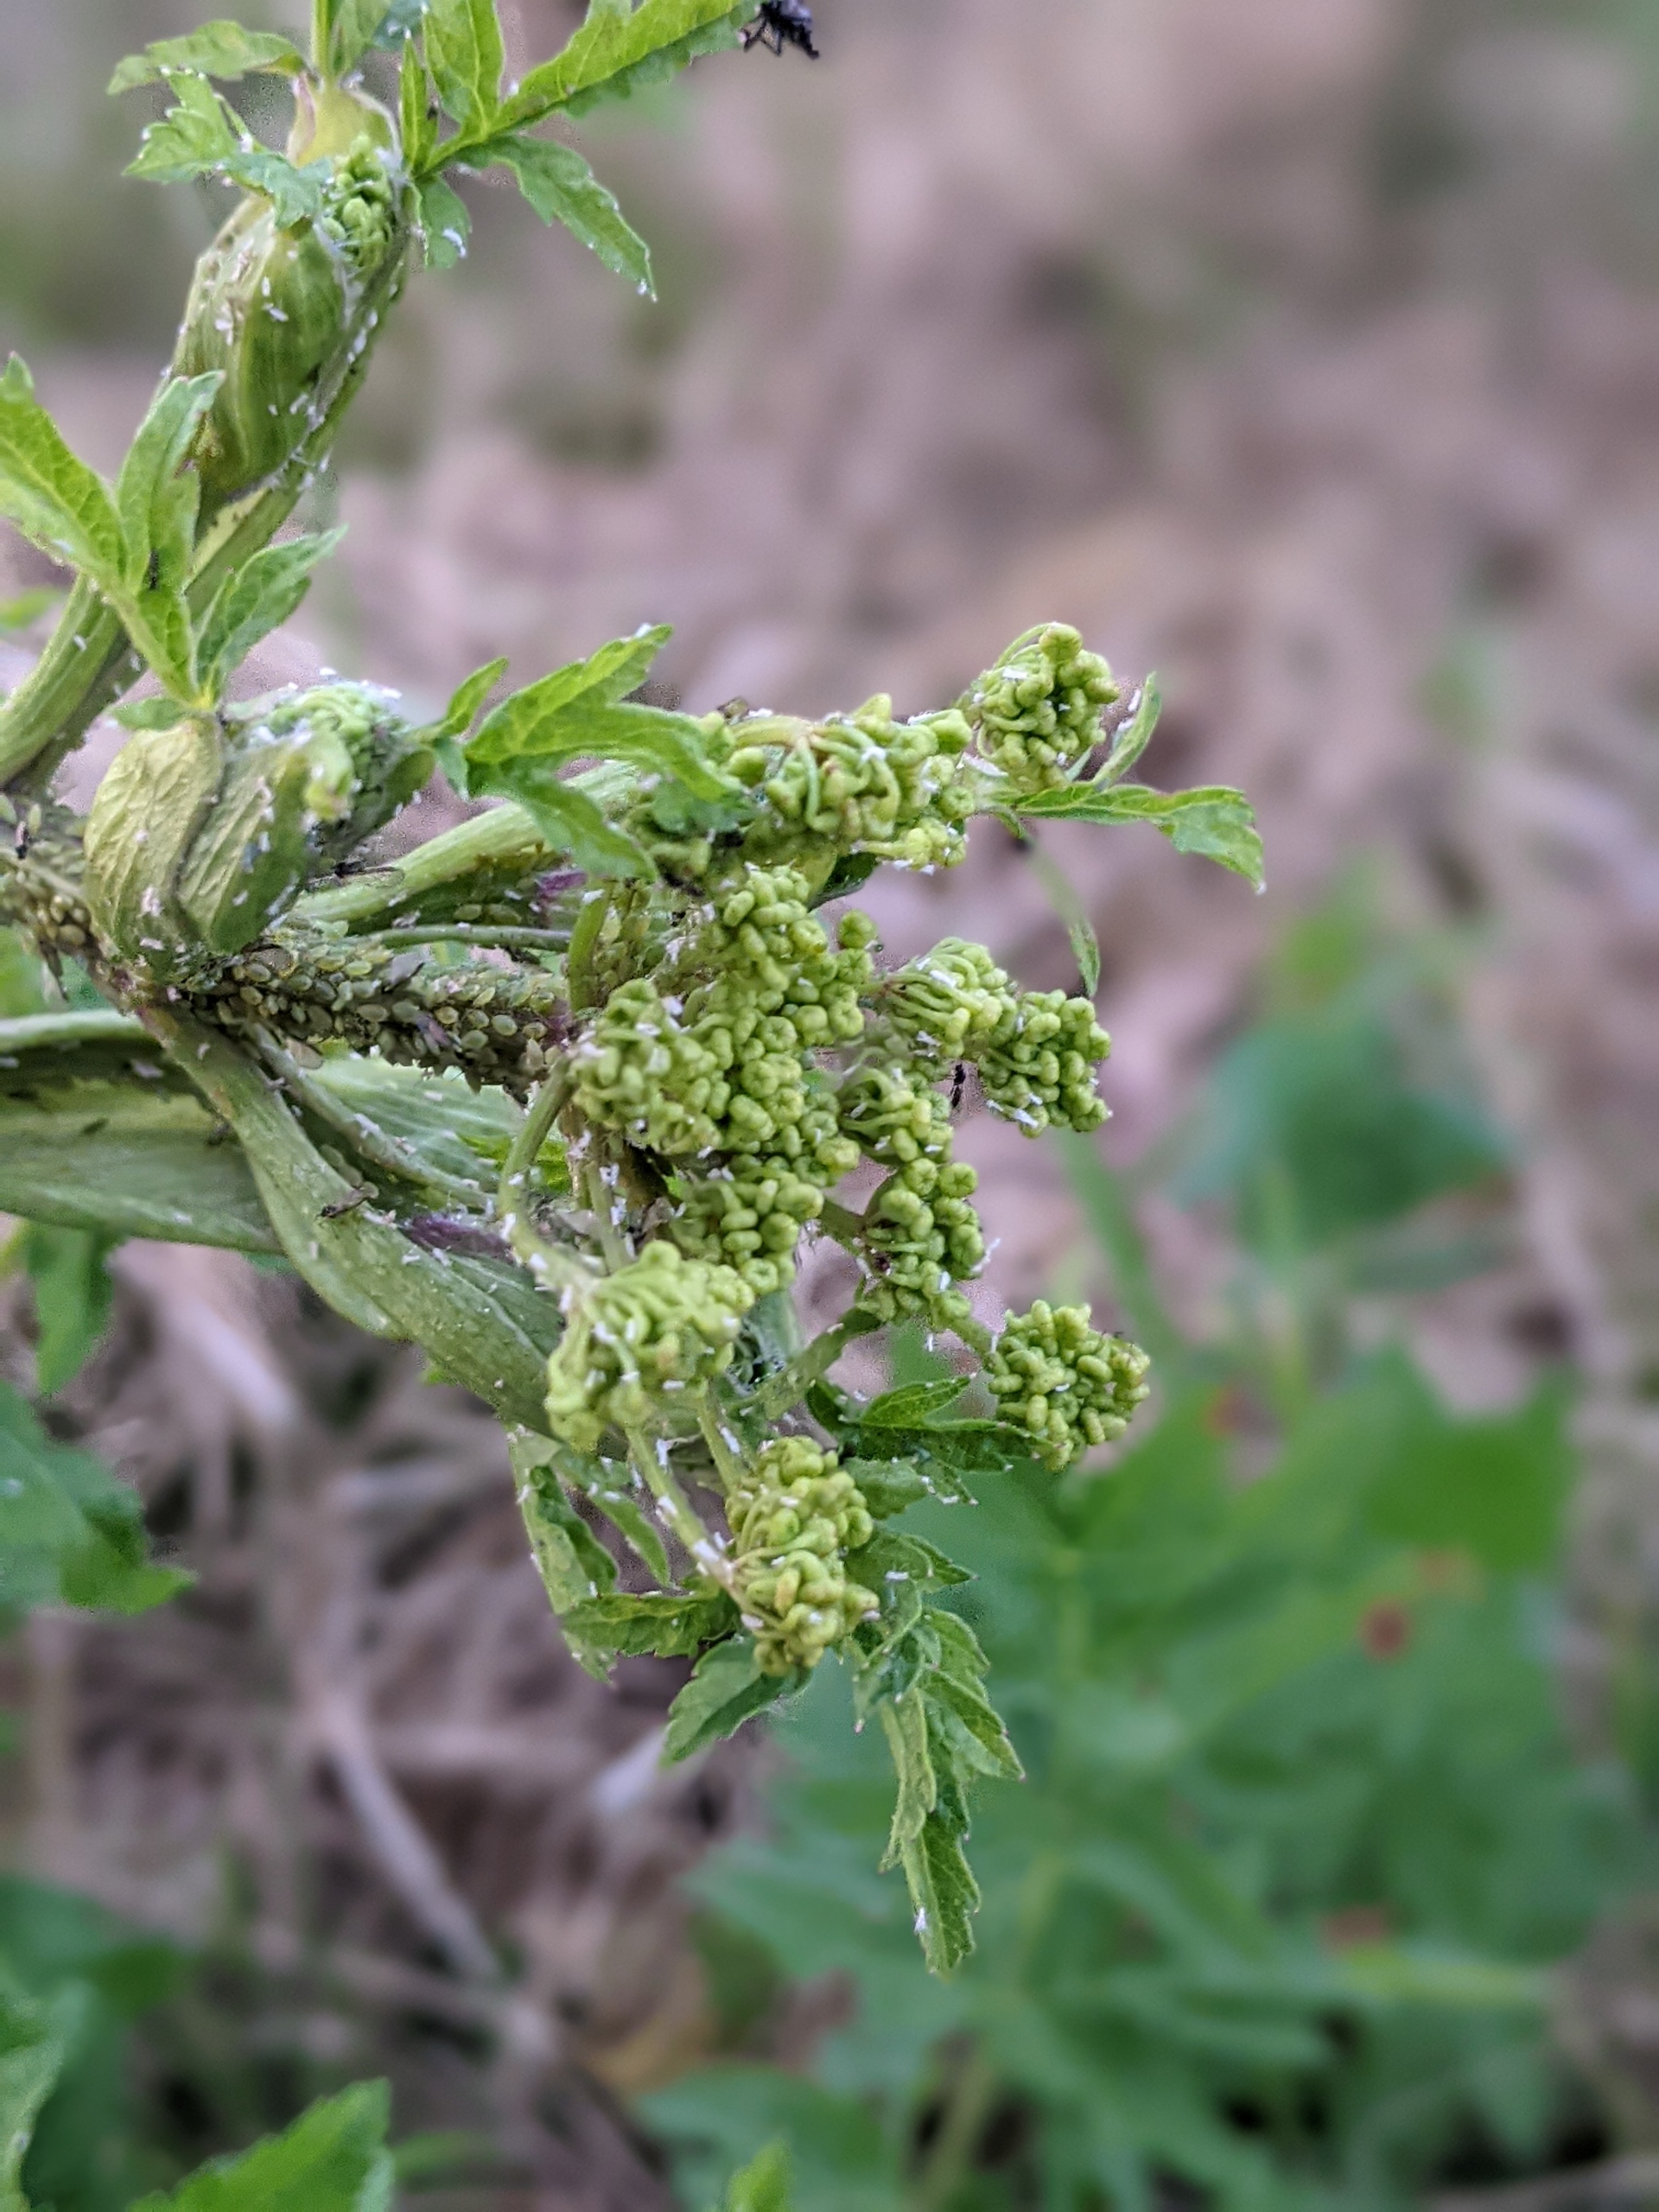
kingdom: Plantae
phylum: Tracheophyta
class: Magnoliopsida
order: Apiales
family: Apiaceae
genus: Pastinaca
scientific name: Pastinaca sativa
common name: Pastinak
